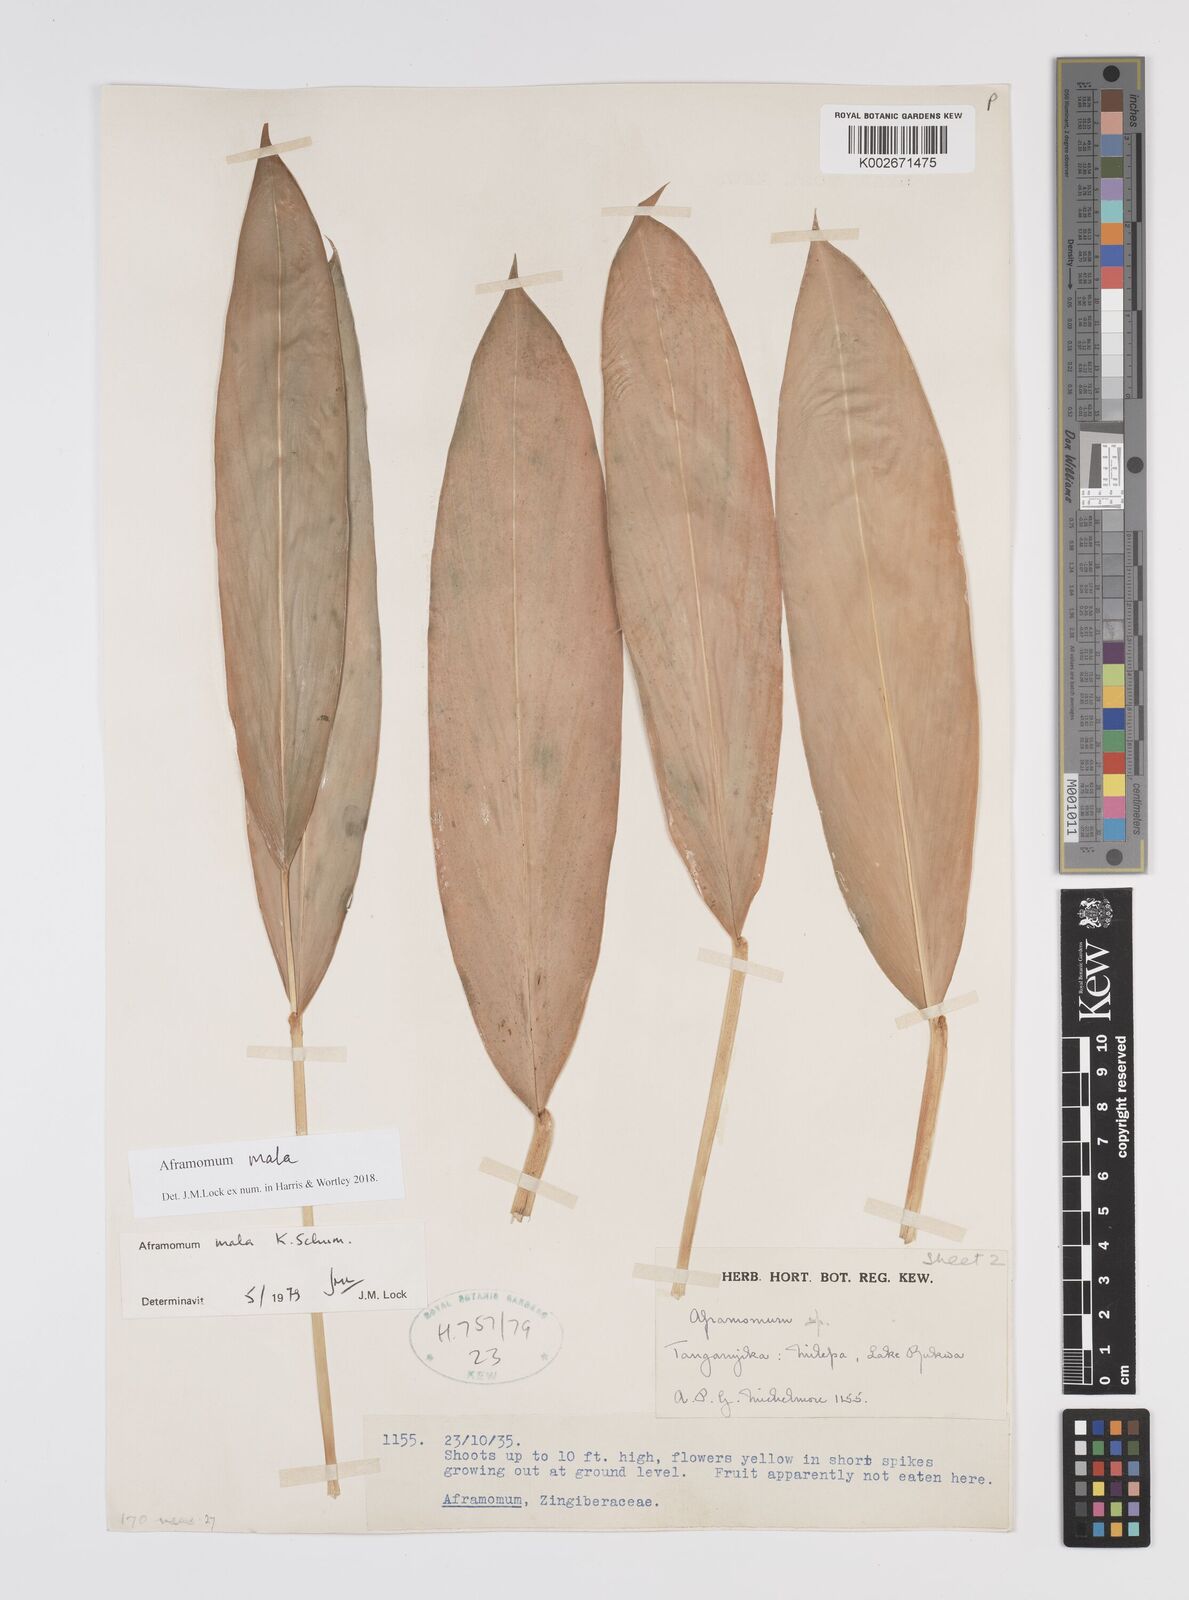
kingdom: Plantae
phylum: Tracheophyta
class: Liliopsida
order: Zingiberales
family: Zingiberaceae
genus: Aframomum
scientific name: Aframomum mala
